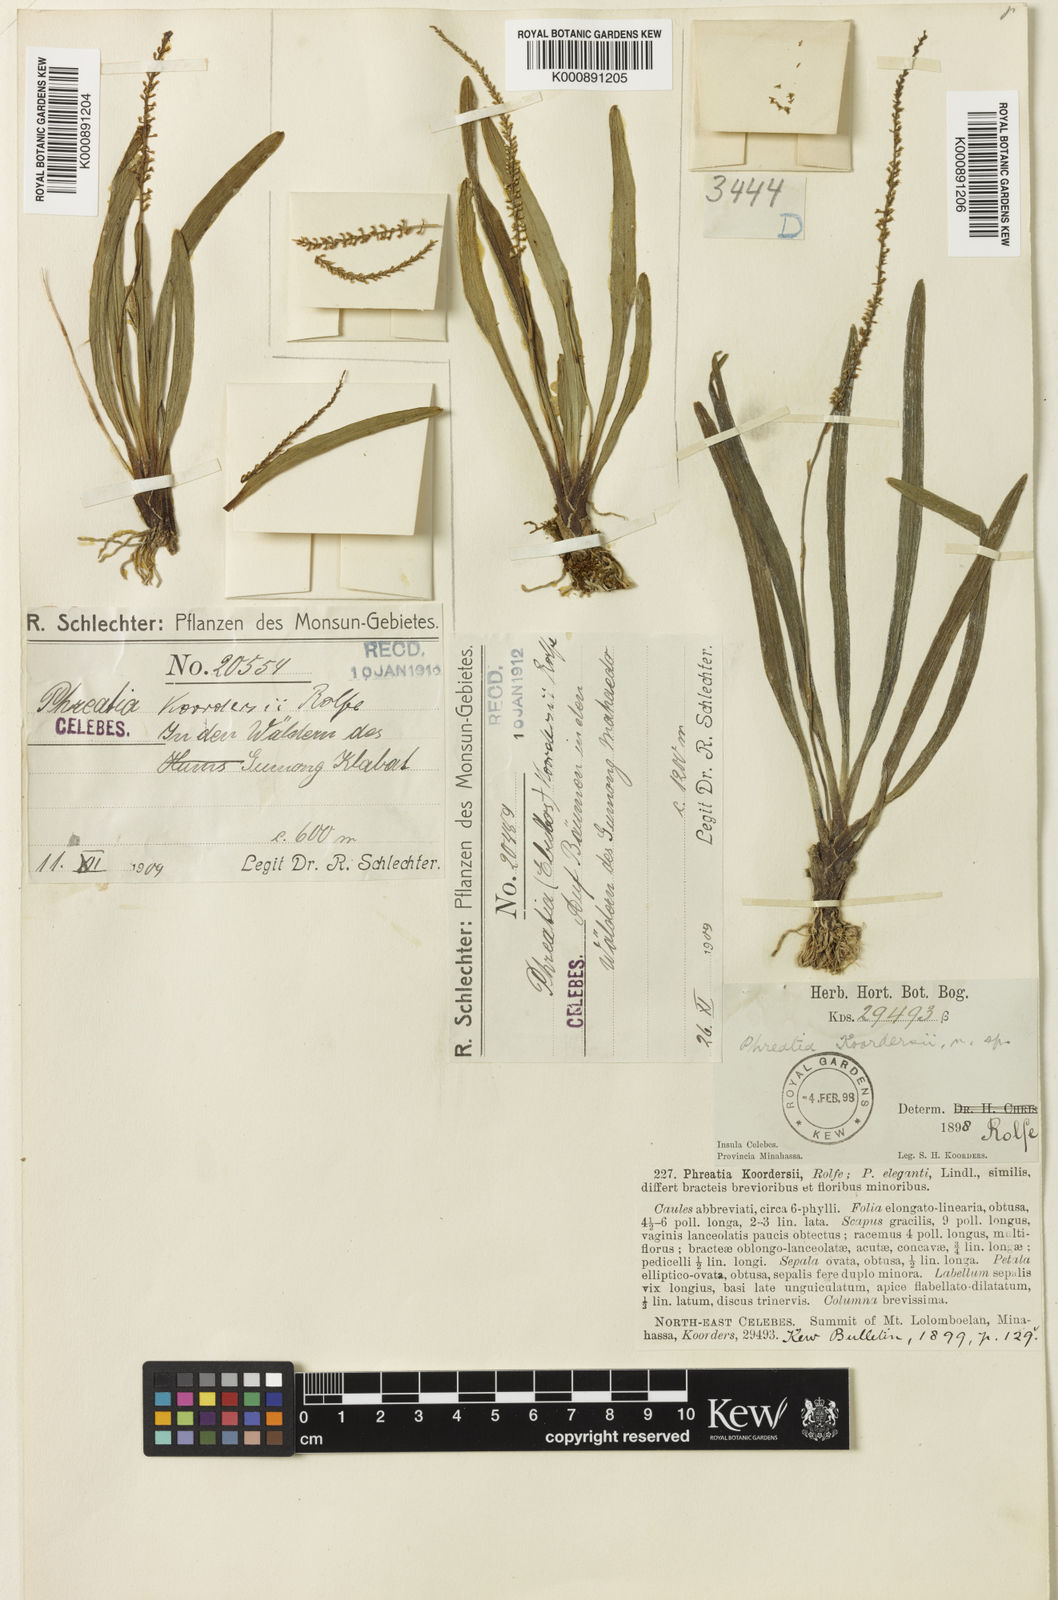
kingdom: Plantae
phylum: Tracheophyta
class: Liliopsida
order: Asparagales
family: Orchidaceae
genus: Phreatia
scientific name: Phreatia koordersii
